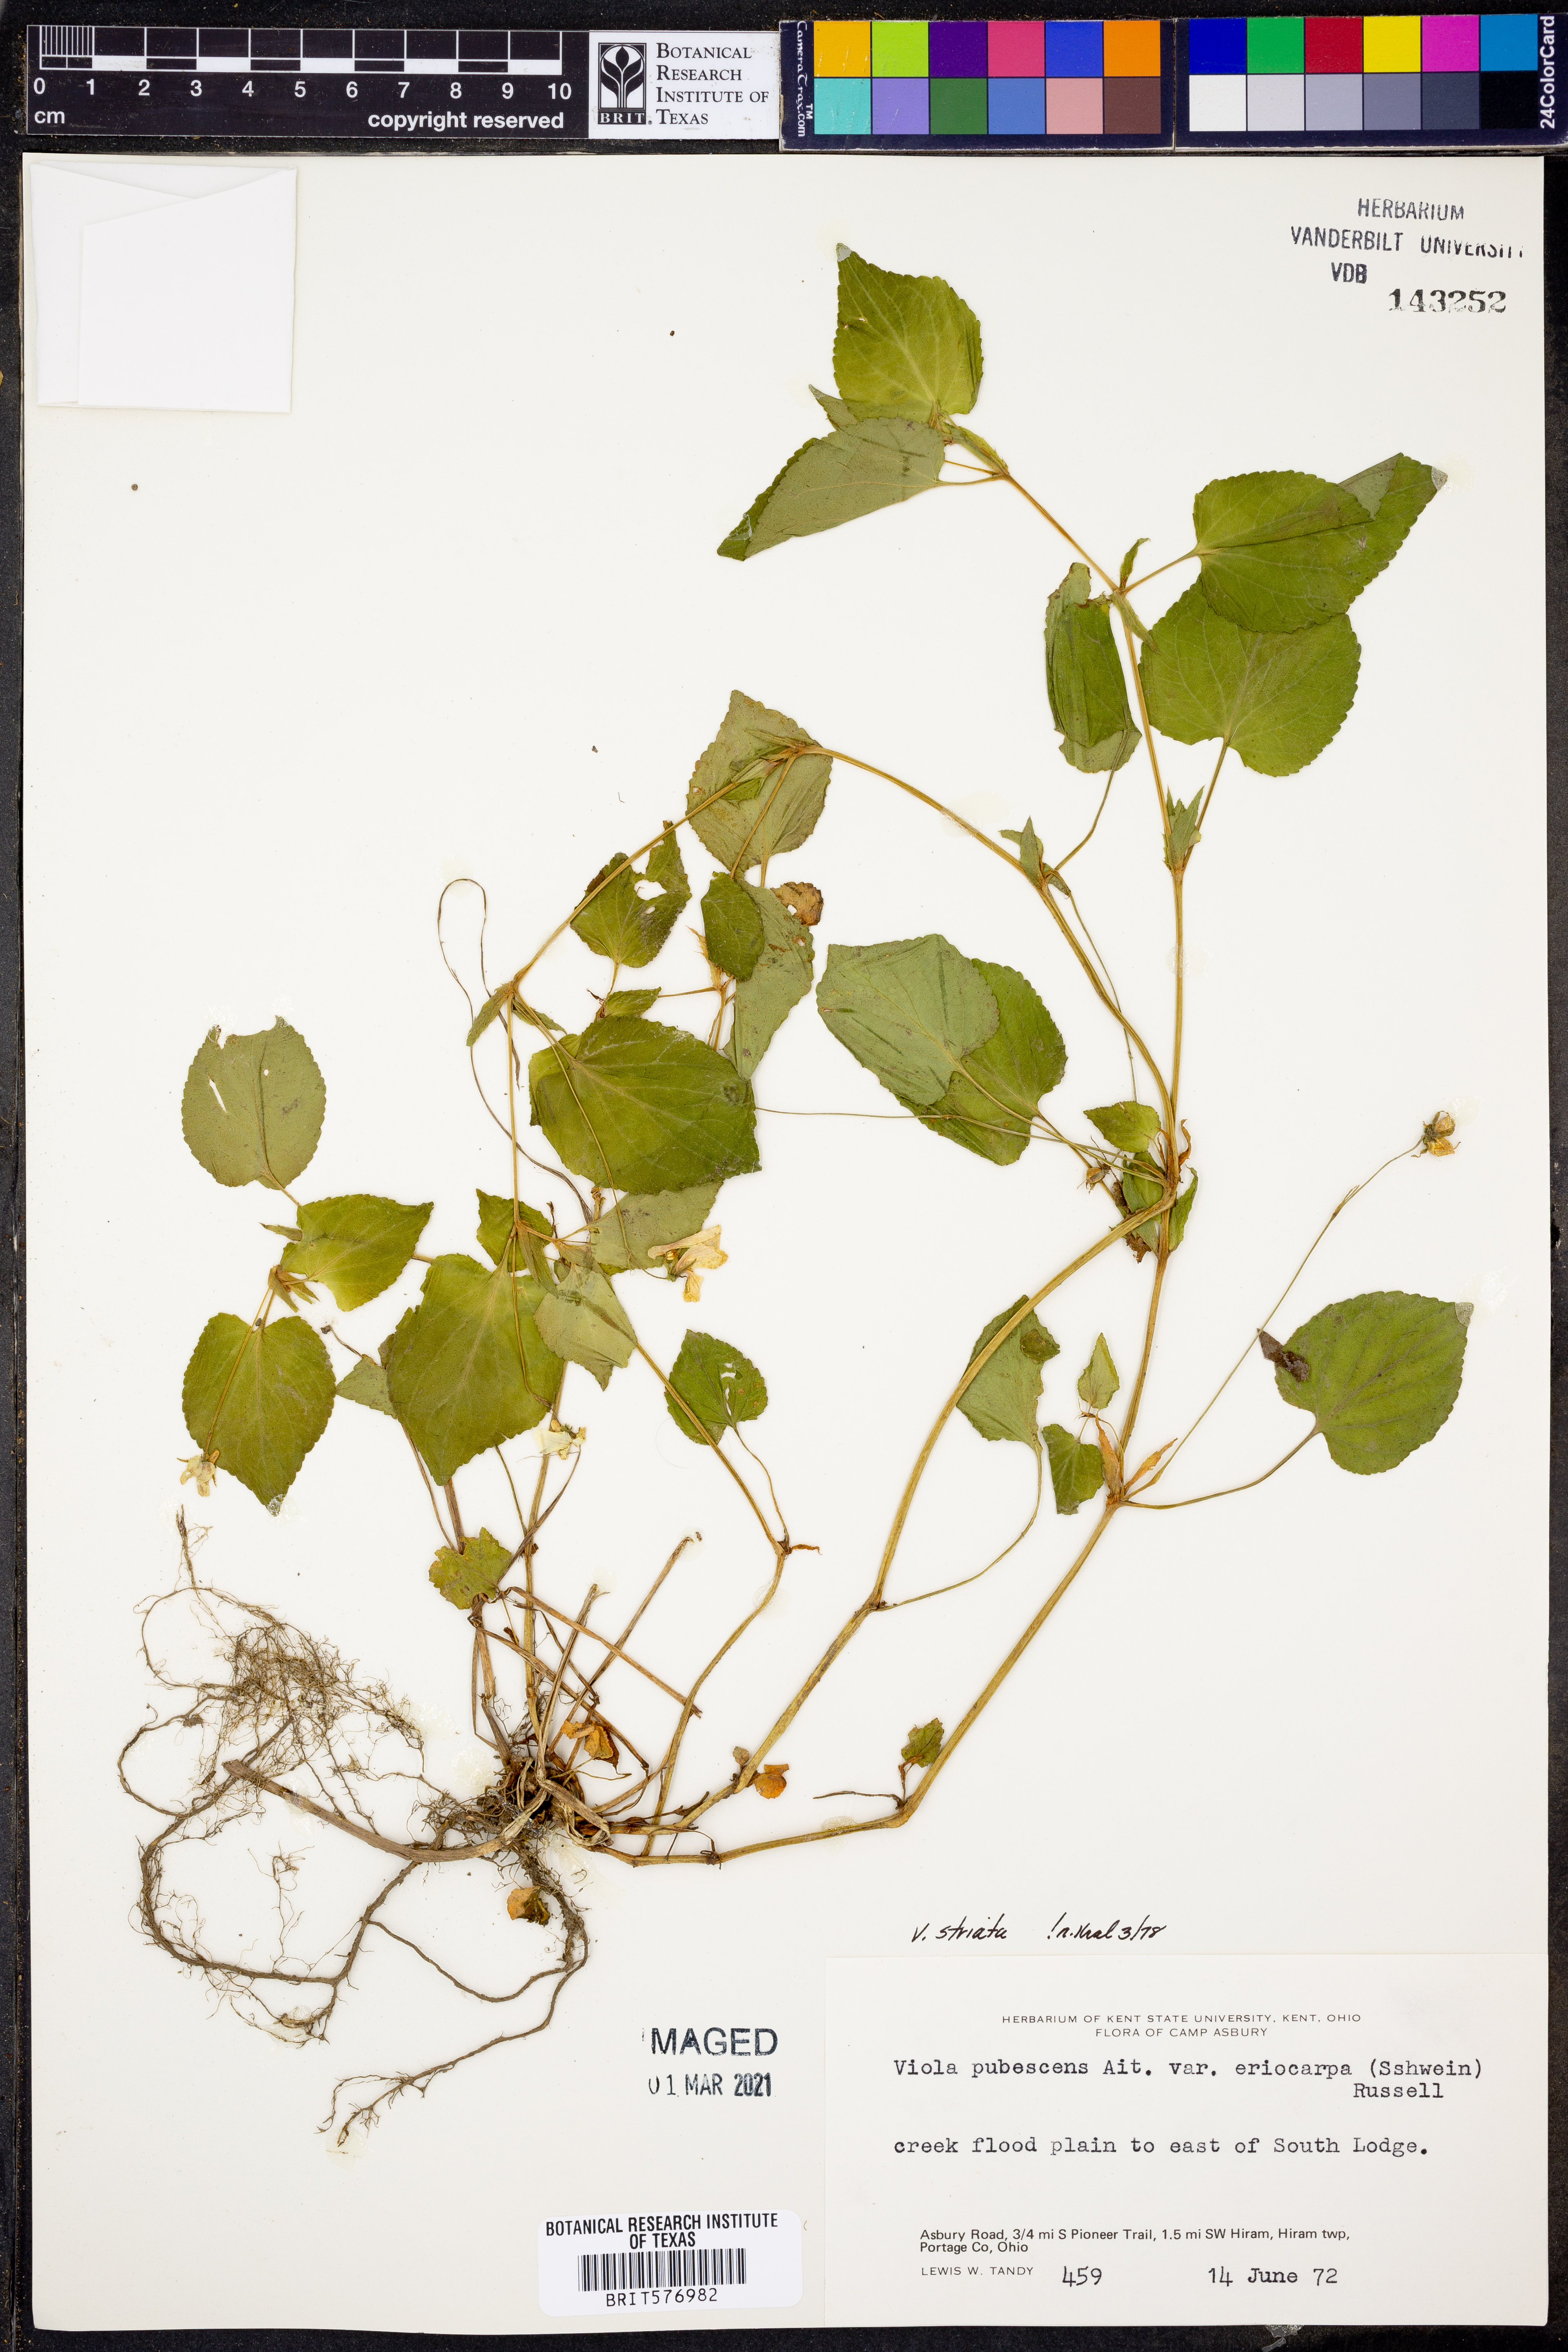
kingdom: Plantae
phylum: Tracheophyta
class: Magnoliopsida
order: Malpighiales
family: Violaceae
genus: Viola
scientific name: Viola striata
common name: Cream violet
